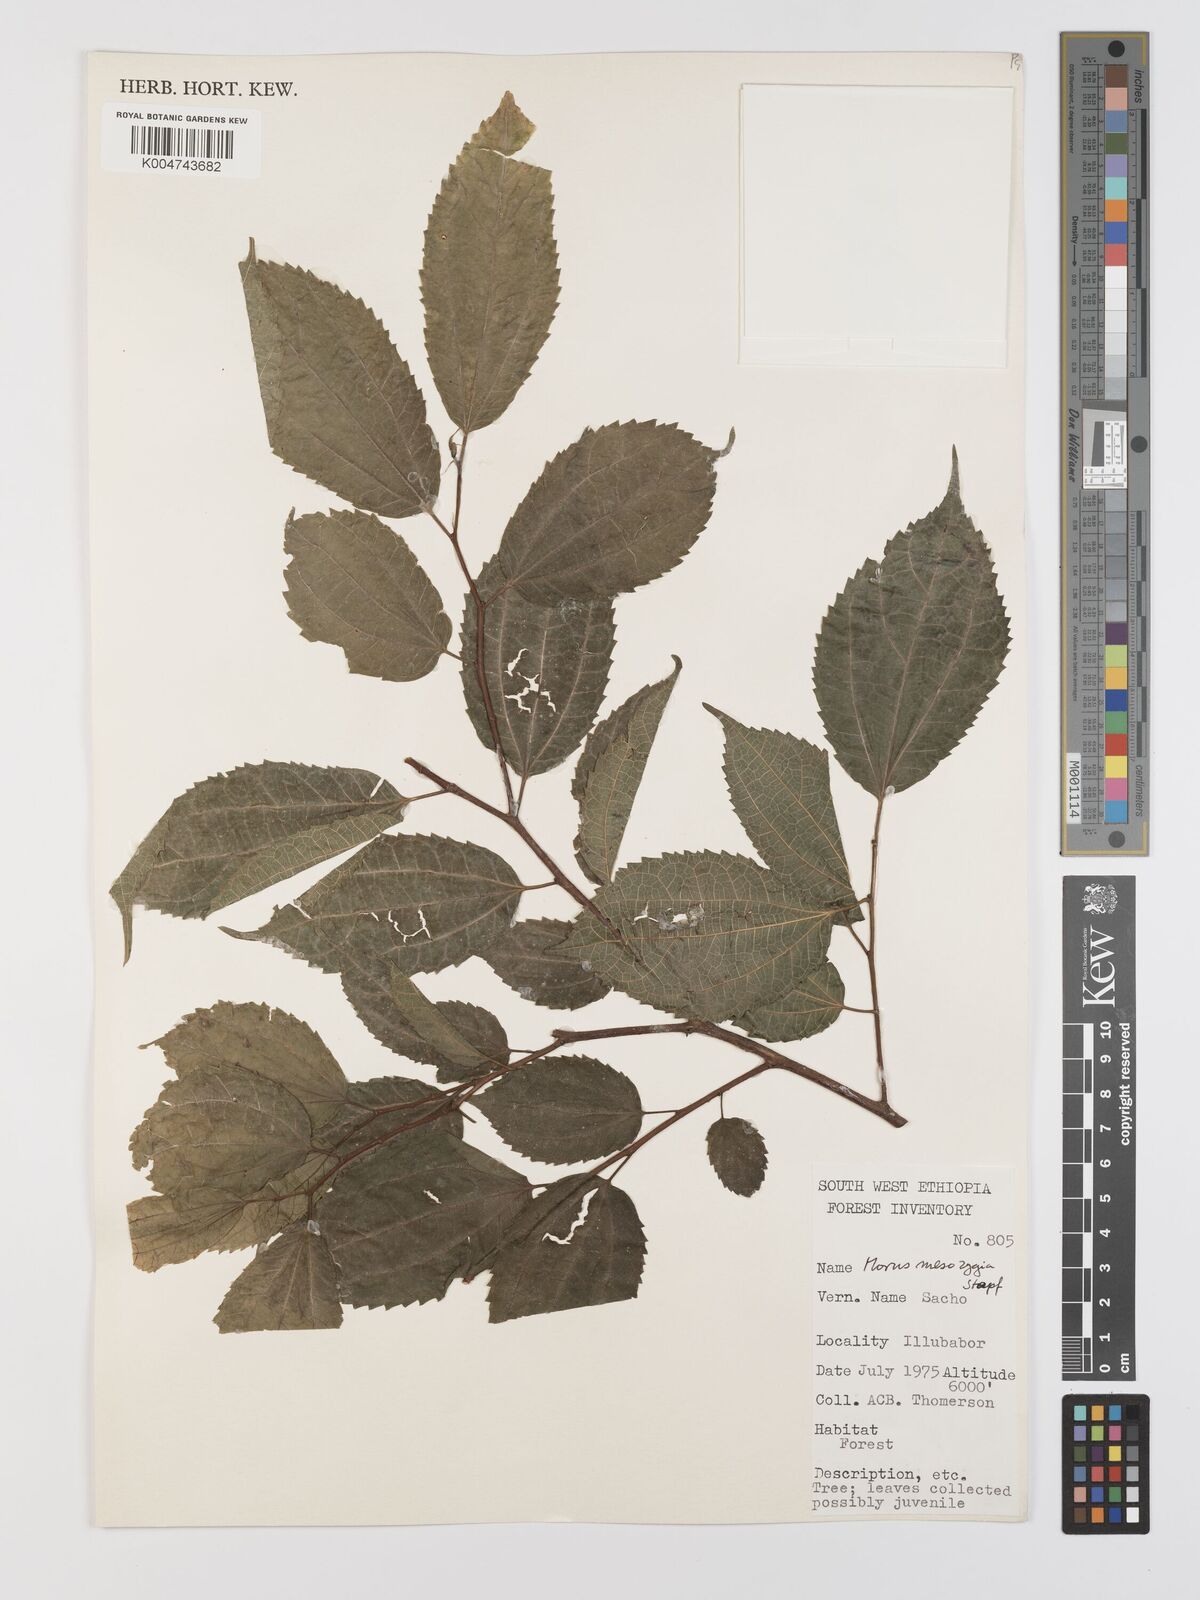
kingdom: Plantae
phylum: Tracheophyta
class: Magnoliopsida
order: Rosales
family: Moraceae
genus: Afromorus
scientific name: Afromorus mesozygia
